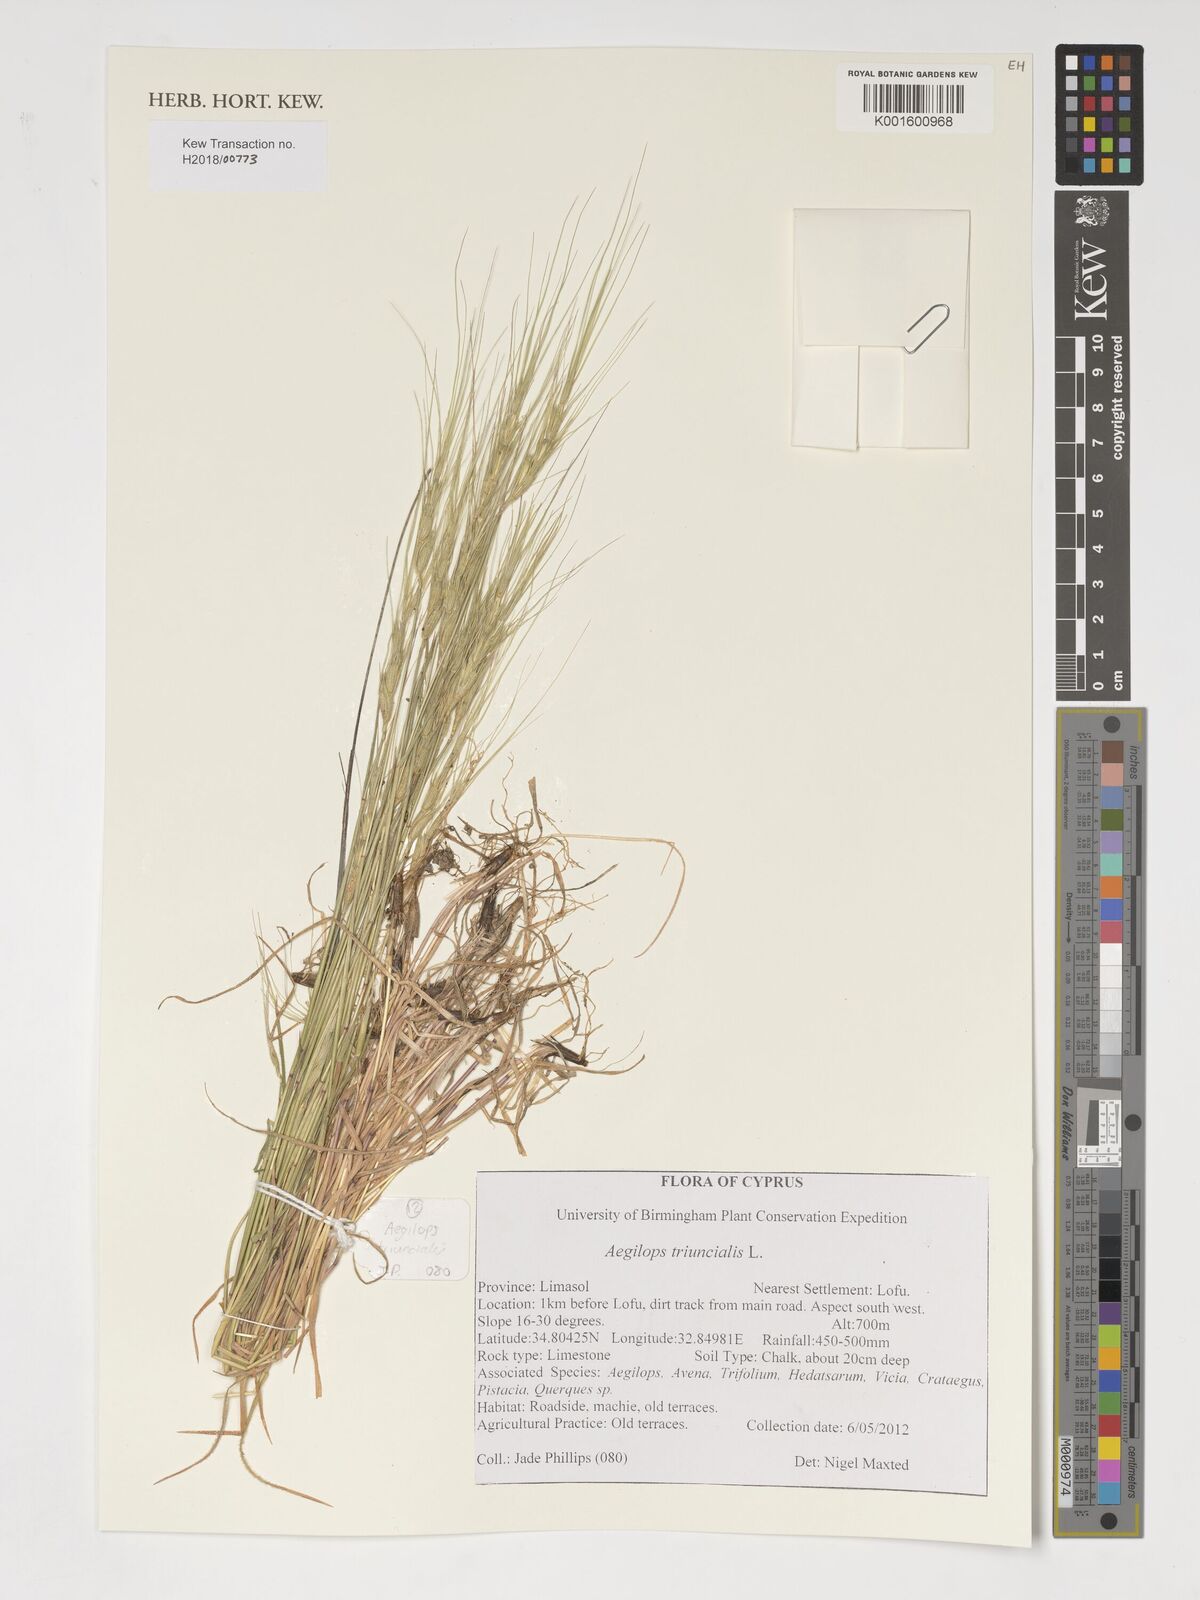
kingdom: Plantae
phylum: Tracheophyta
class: Liliopsida
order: Poales
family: Poaceae
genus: Aegilops
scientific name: Aegilops triuncialis
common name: Barb goat grass
